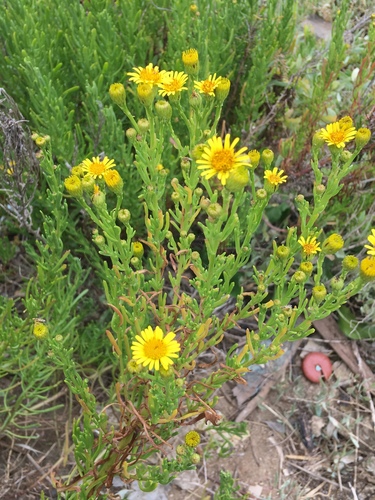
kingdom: Plantae
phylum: Tracheophyta
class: Magnoliopsida
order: Asterales
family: Asteraceae
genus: Limbarda
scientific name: Limbarda crithmoides
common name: Golden samphire
